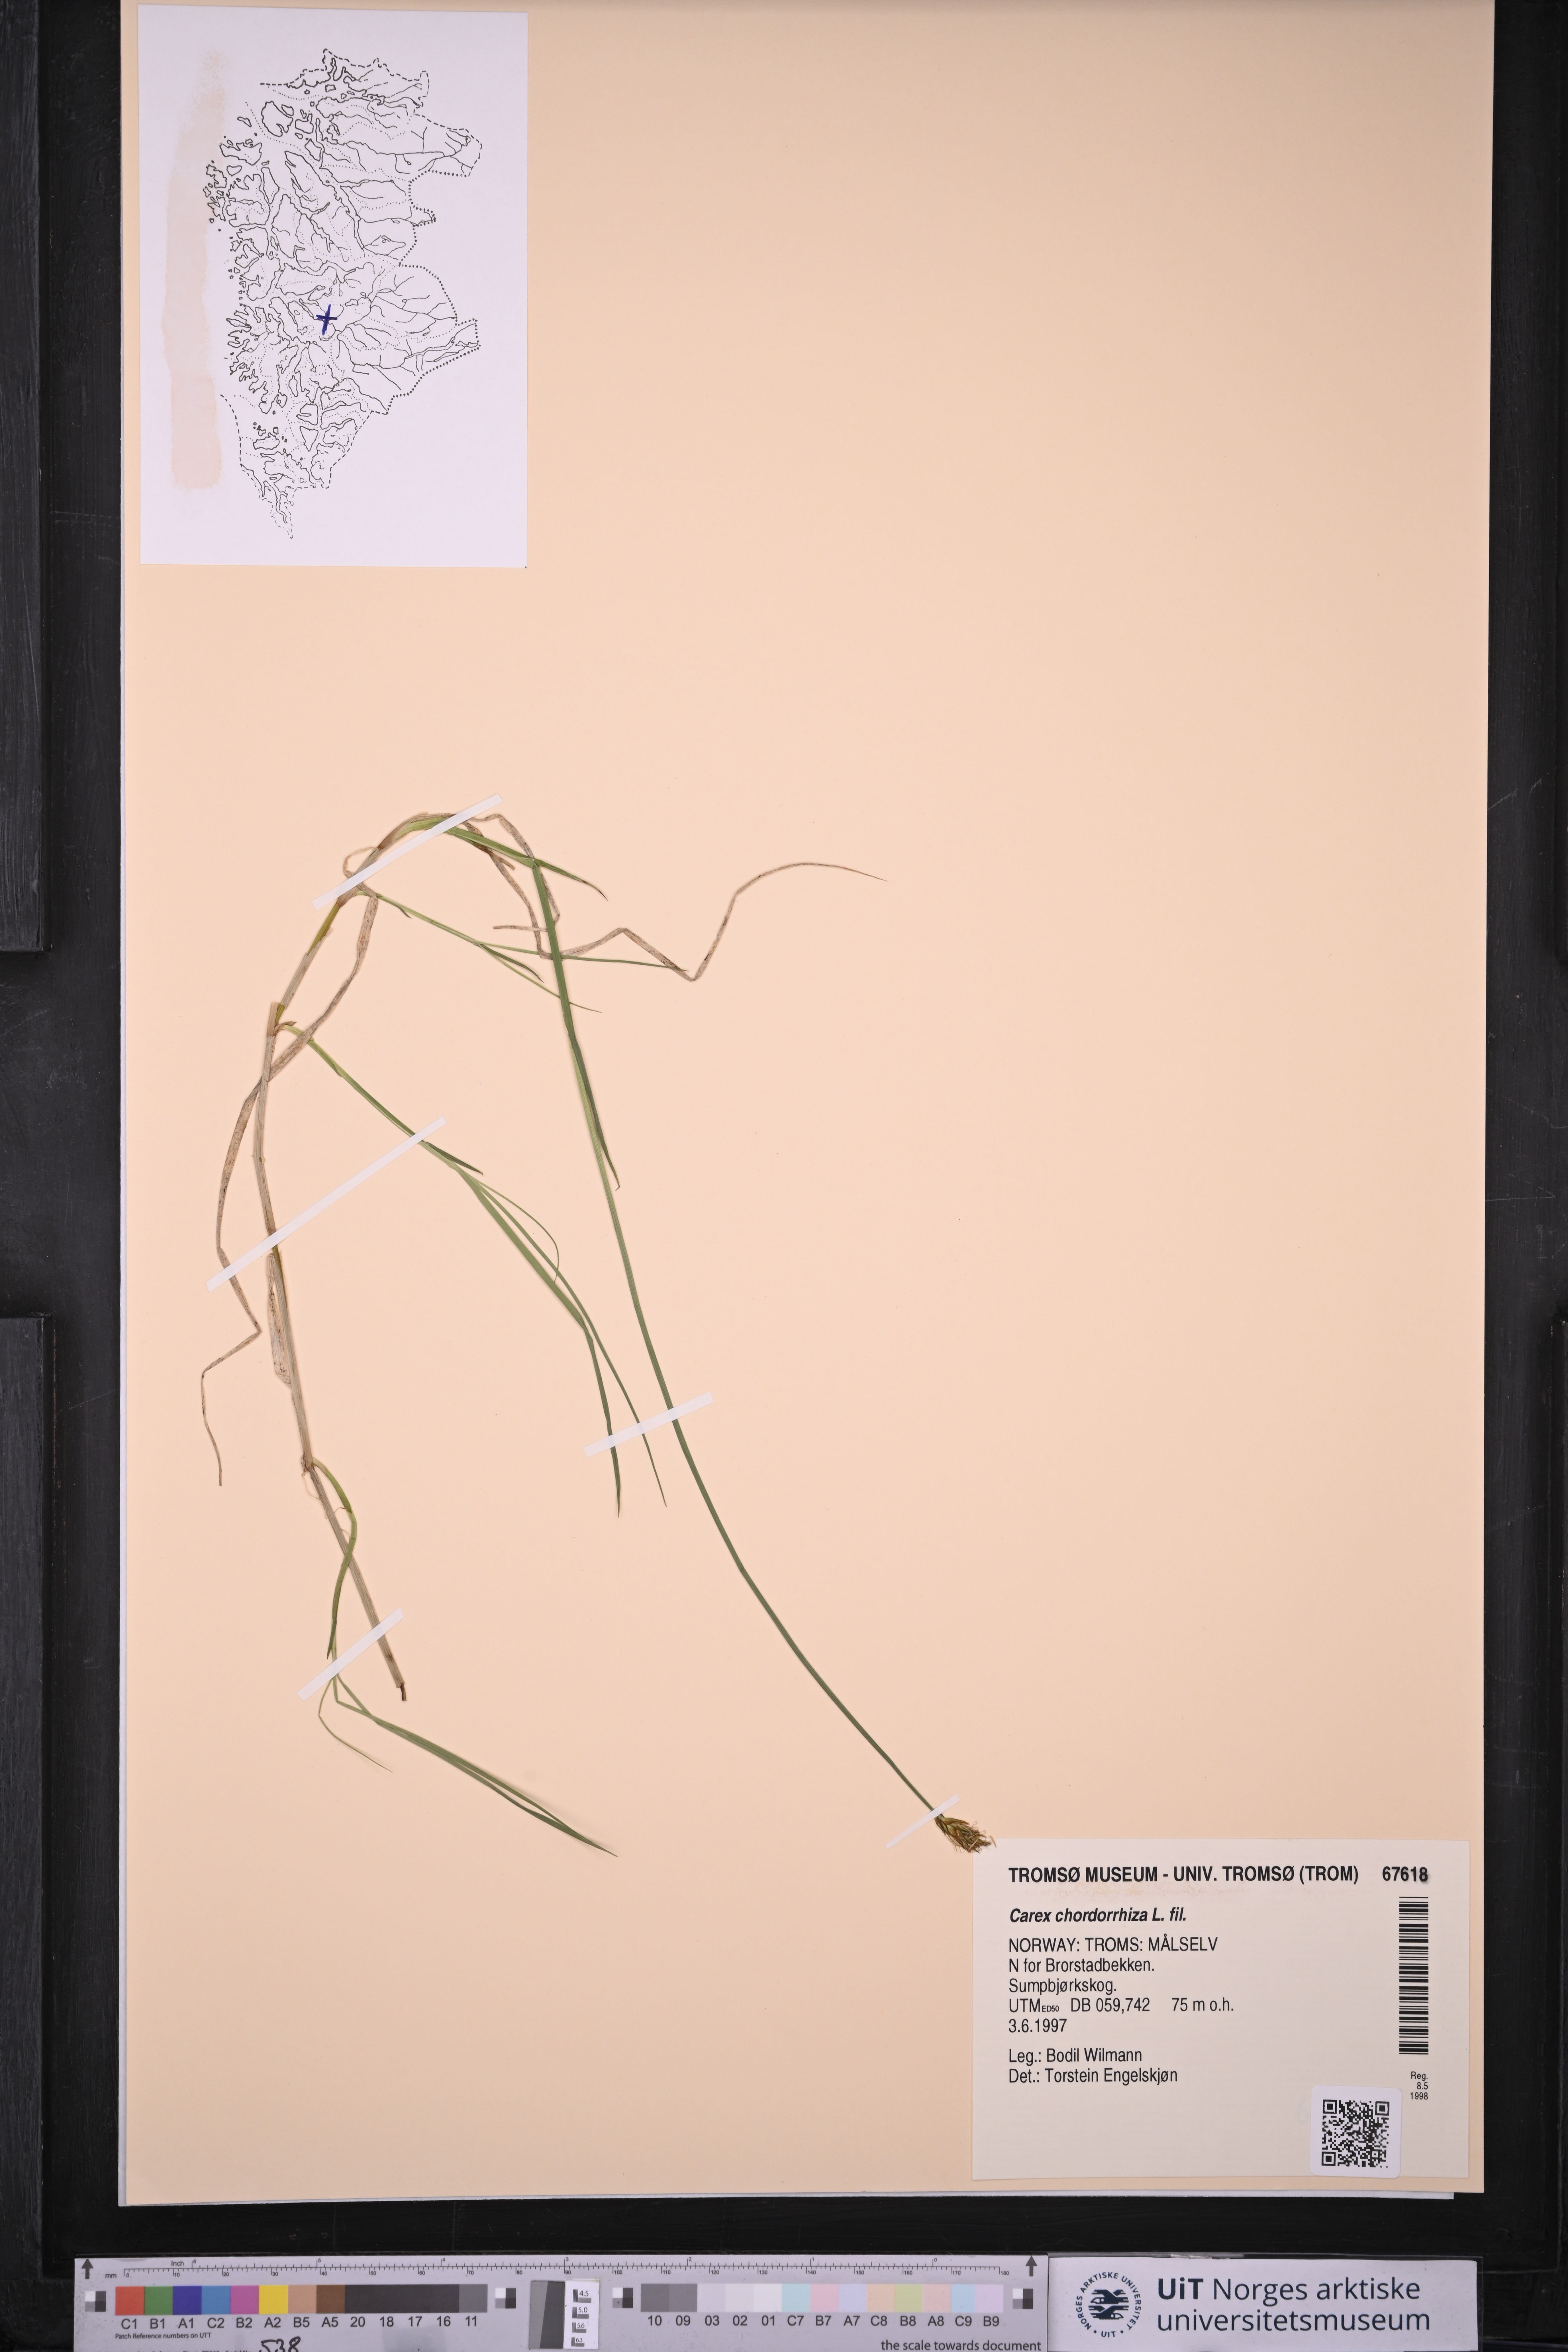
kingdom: Plantae
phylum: Tracheophyta
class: Liliopsida
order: Poales
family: Cyperaceae
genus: Carex
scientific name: Carex chordorrhiza
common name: String sedge
